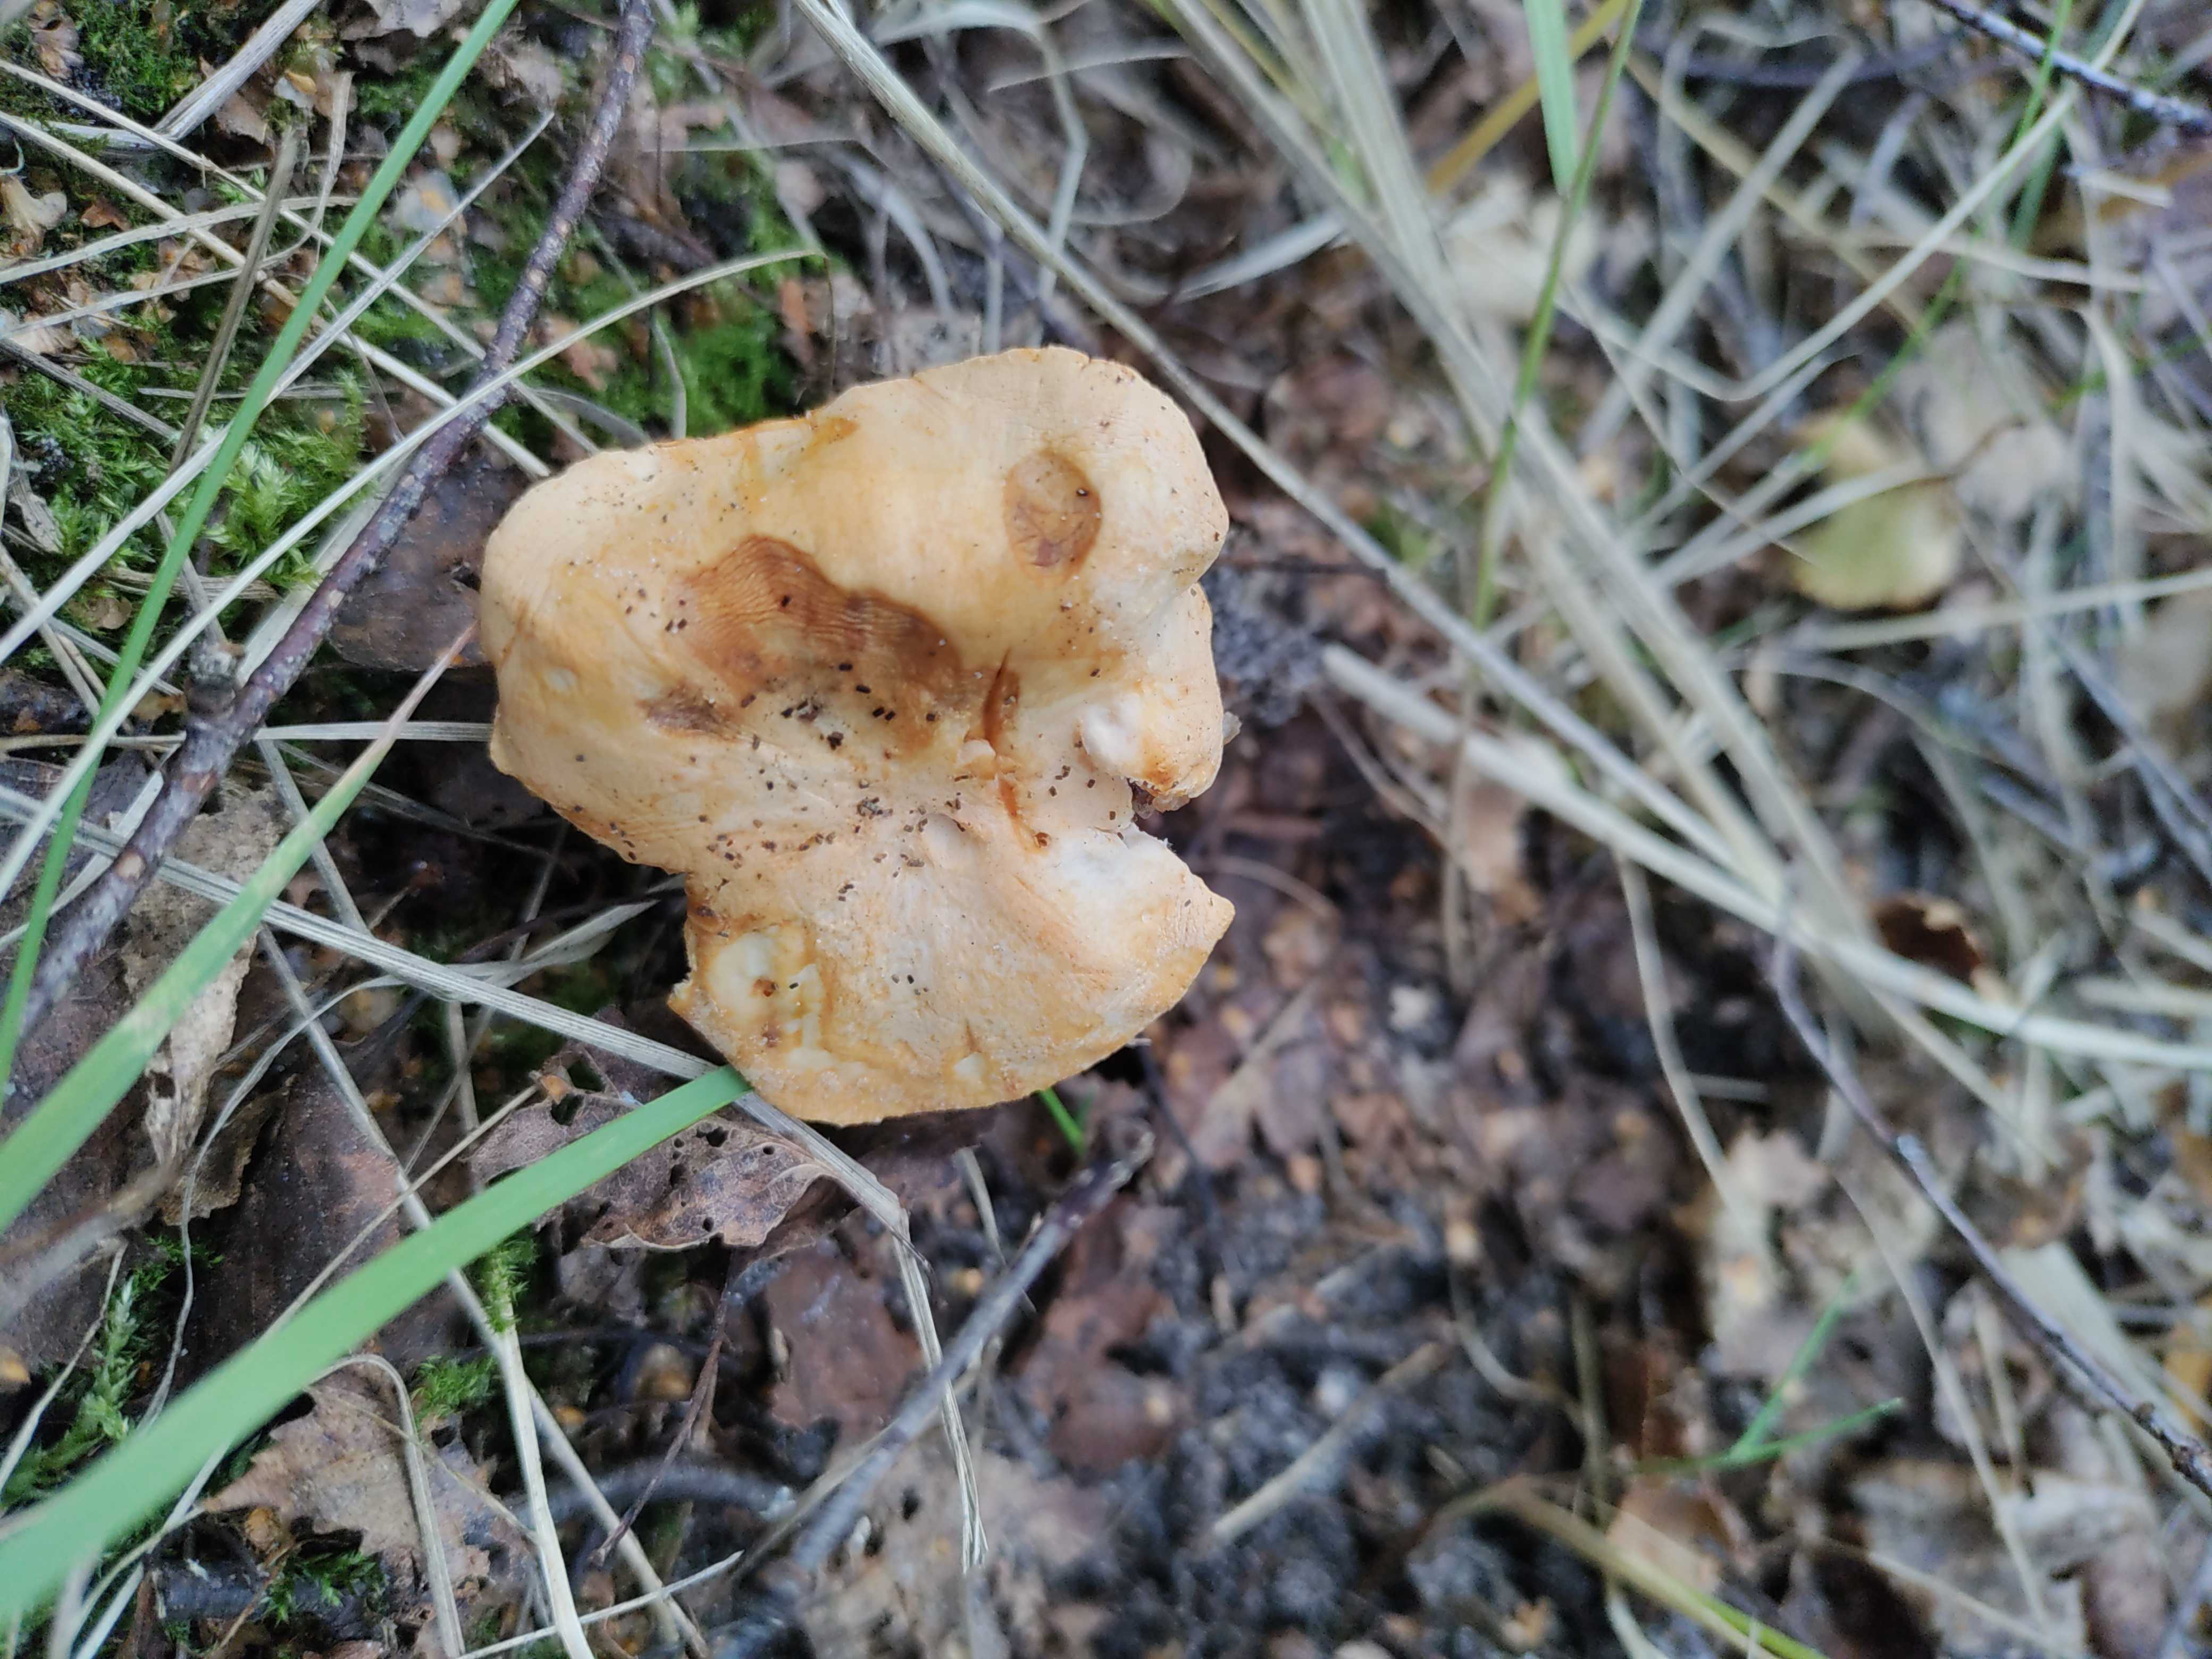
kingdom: Fungi
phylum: Basidiomycota
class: Agaricomycetes
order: Cantharellales
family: Hydnaceae
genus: Hydnum
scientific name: Hydnum
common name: pigsvamp
